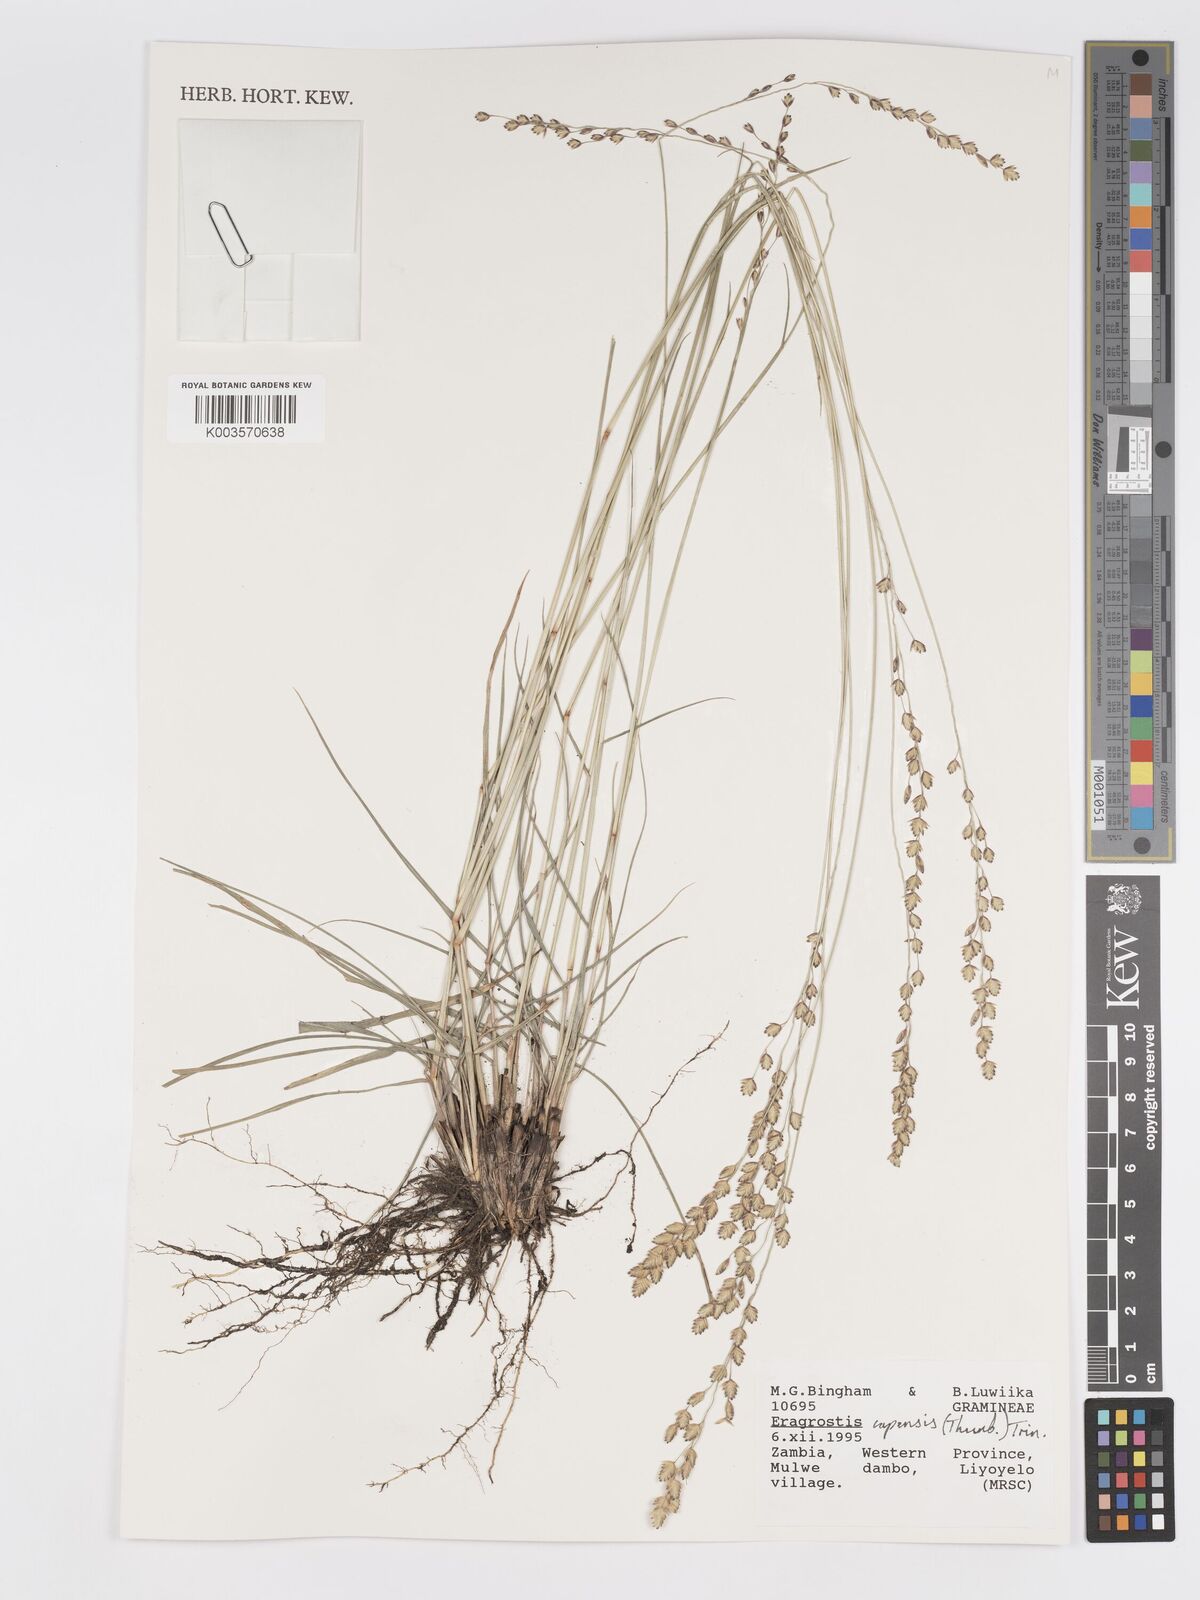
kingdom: Plantae
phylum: Tracheophyta
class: Liliopsida
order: Poales
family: Poaceae
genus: Eragrostis
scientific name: Eragrostis capensis
